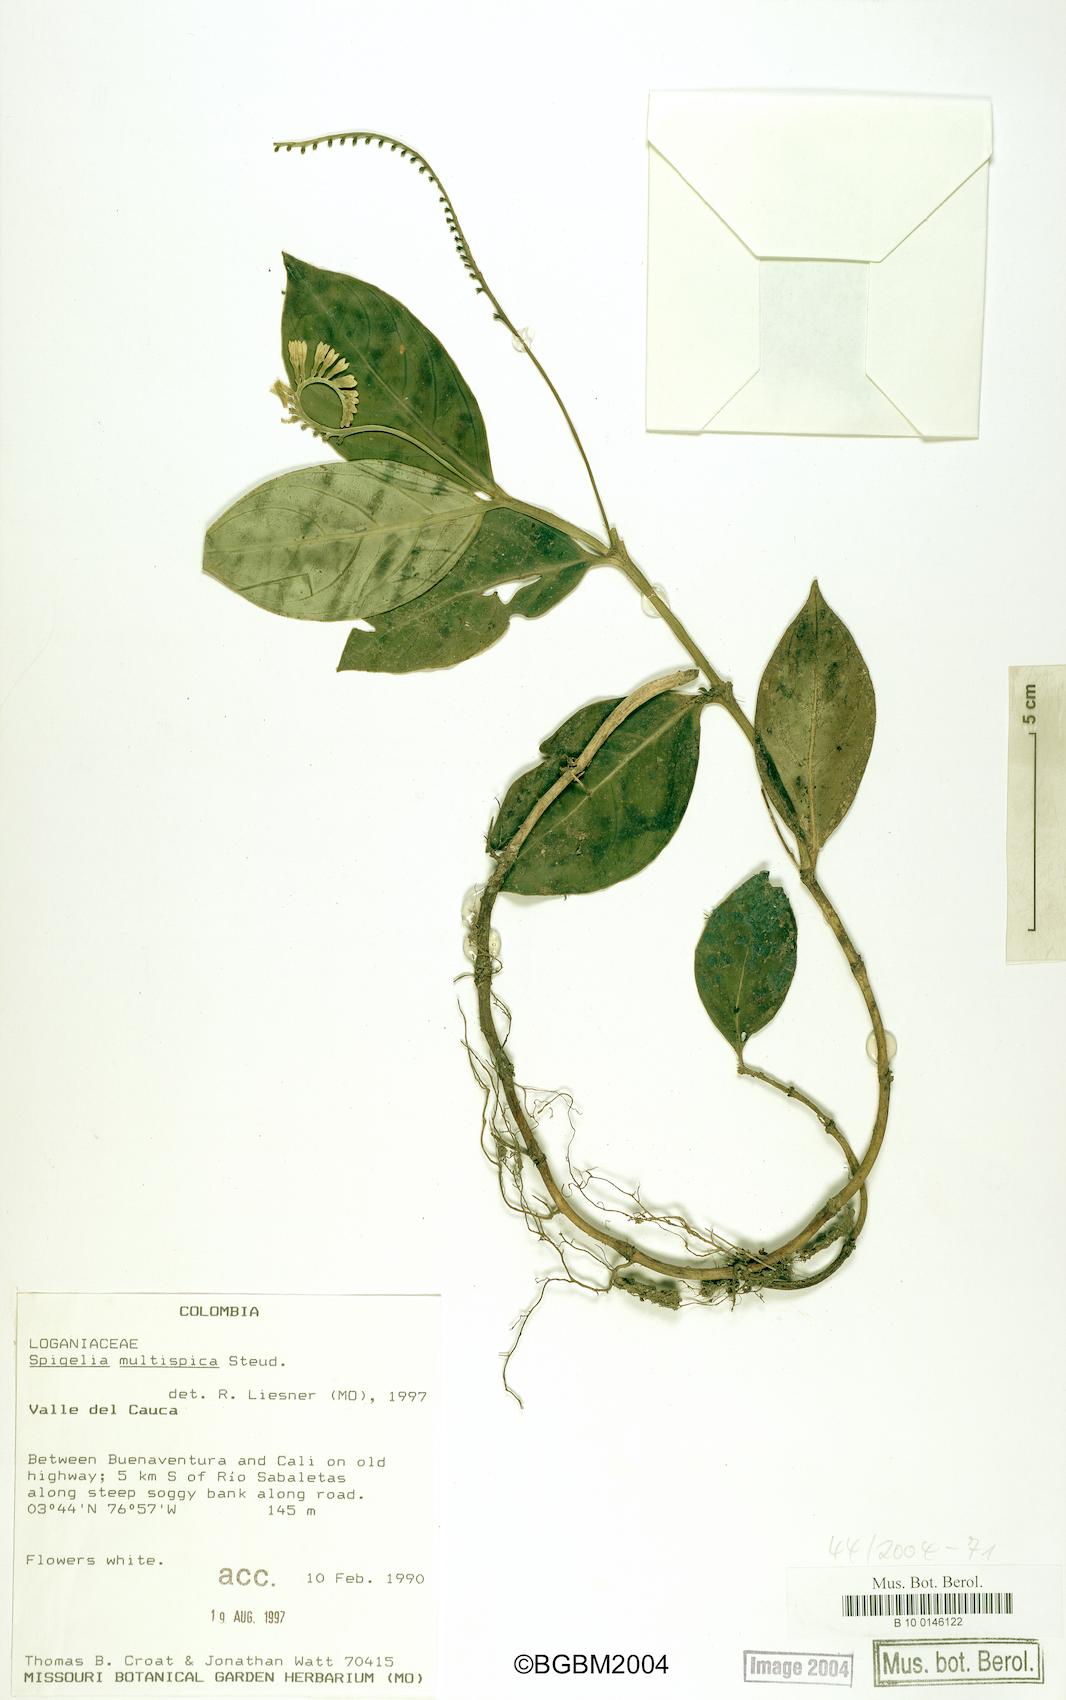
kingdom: Plantae
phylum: Tracheophyta
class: Magnoliopsida
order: Gentianales
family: Loganiaceae
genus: Spigelia
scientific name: Spigelia hamellioides
